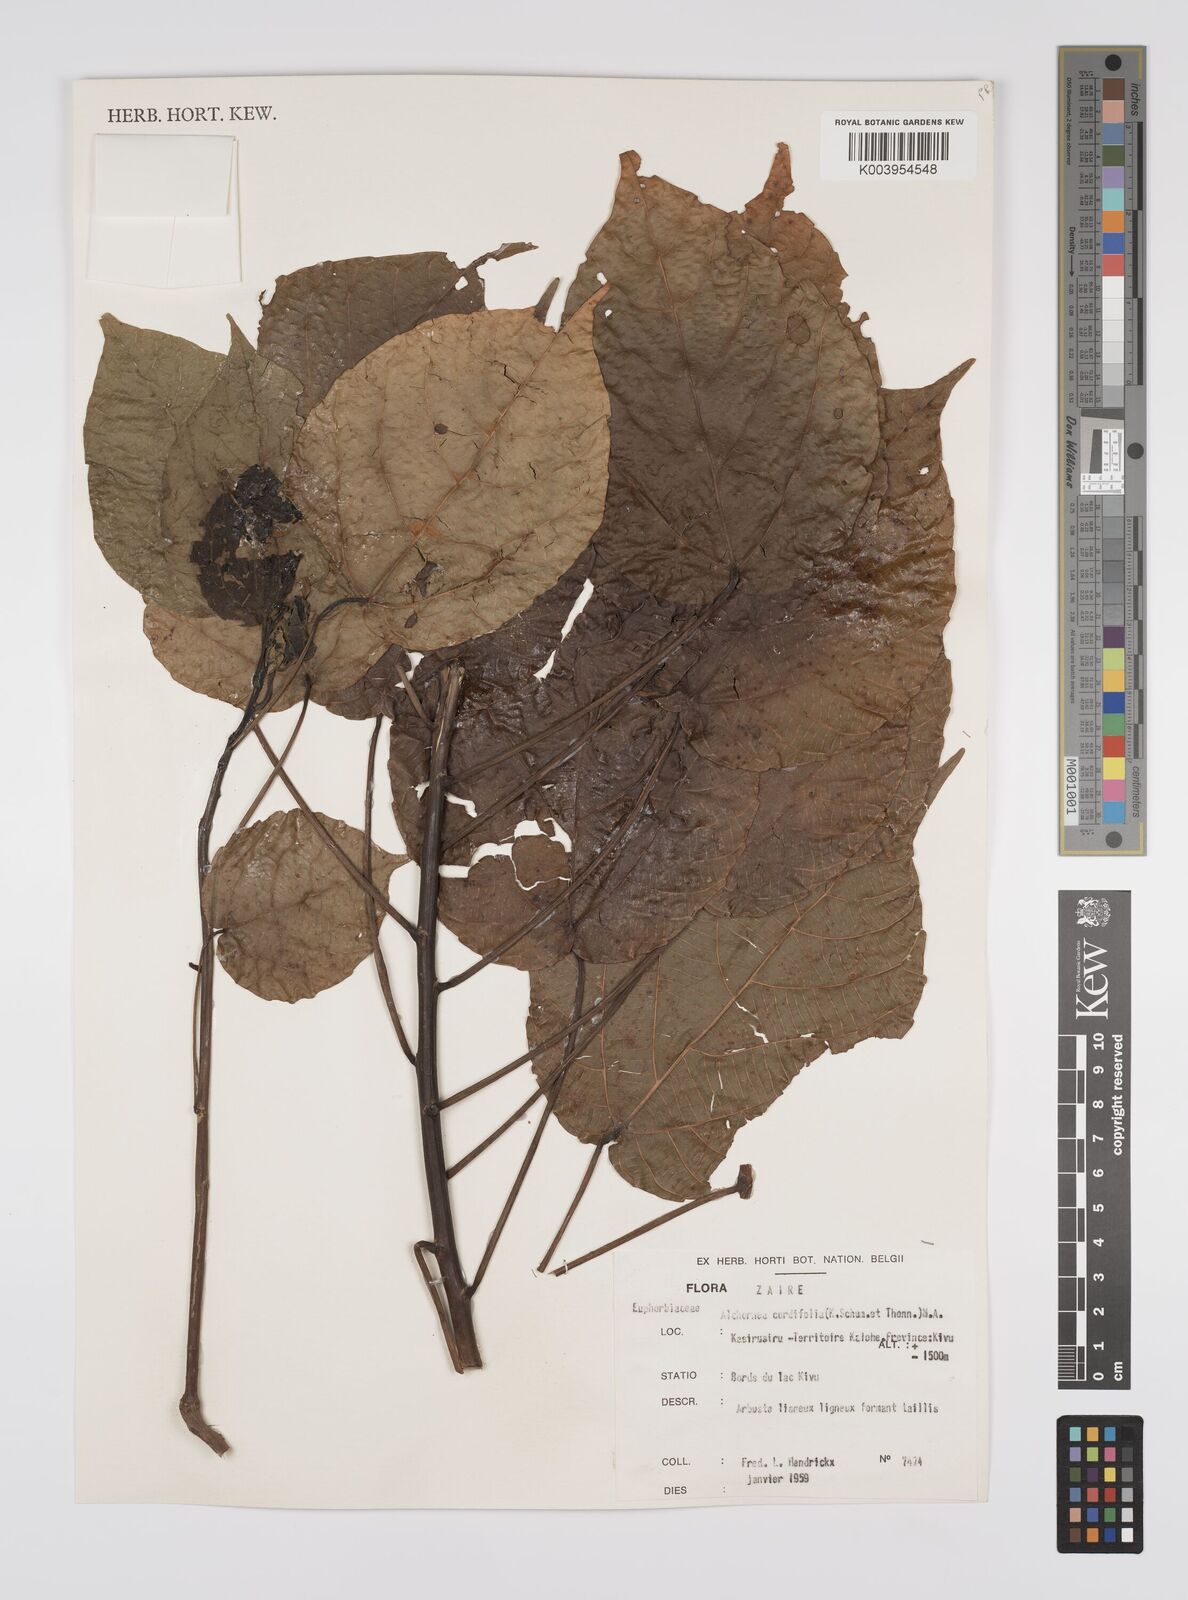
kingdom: Plantae
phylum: Tracheophyta
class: Magnoliopsida
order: Malpighiales
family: Euphorbiaceae
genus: Alchornea
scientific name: Alchornea cordifolia
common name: Christmasbush
